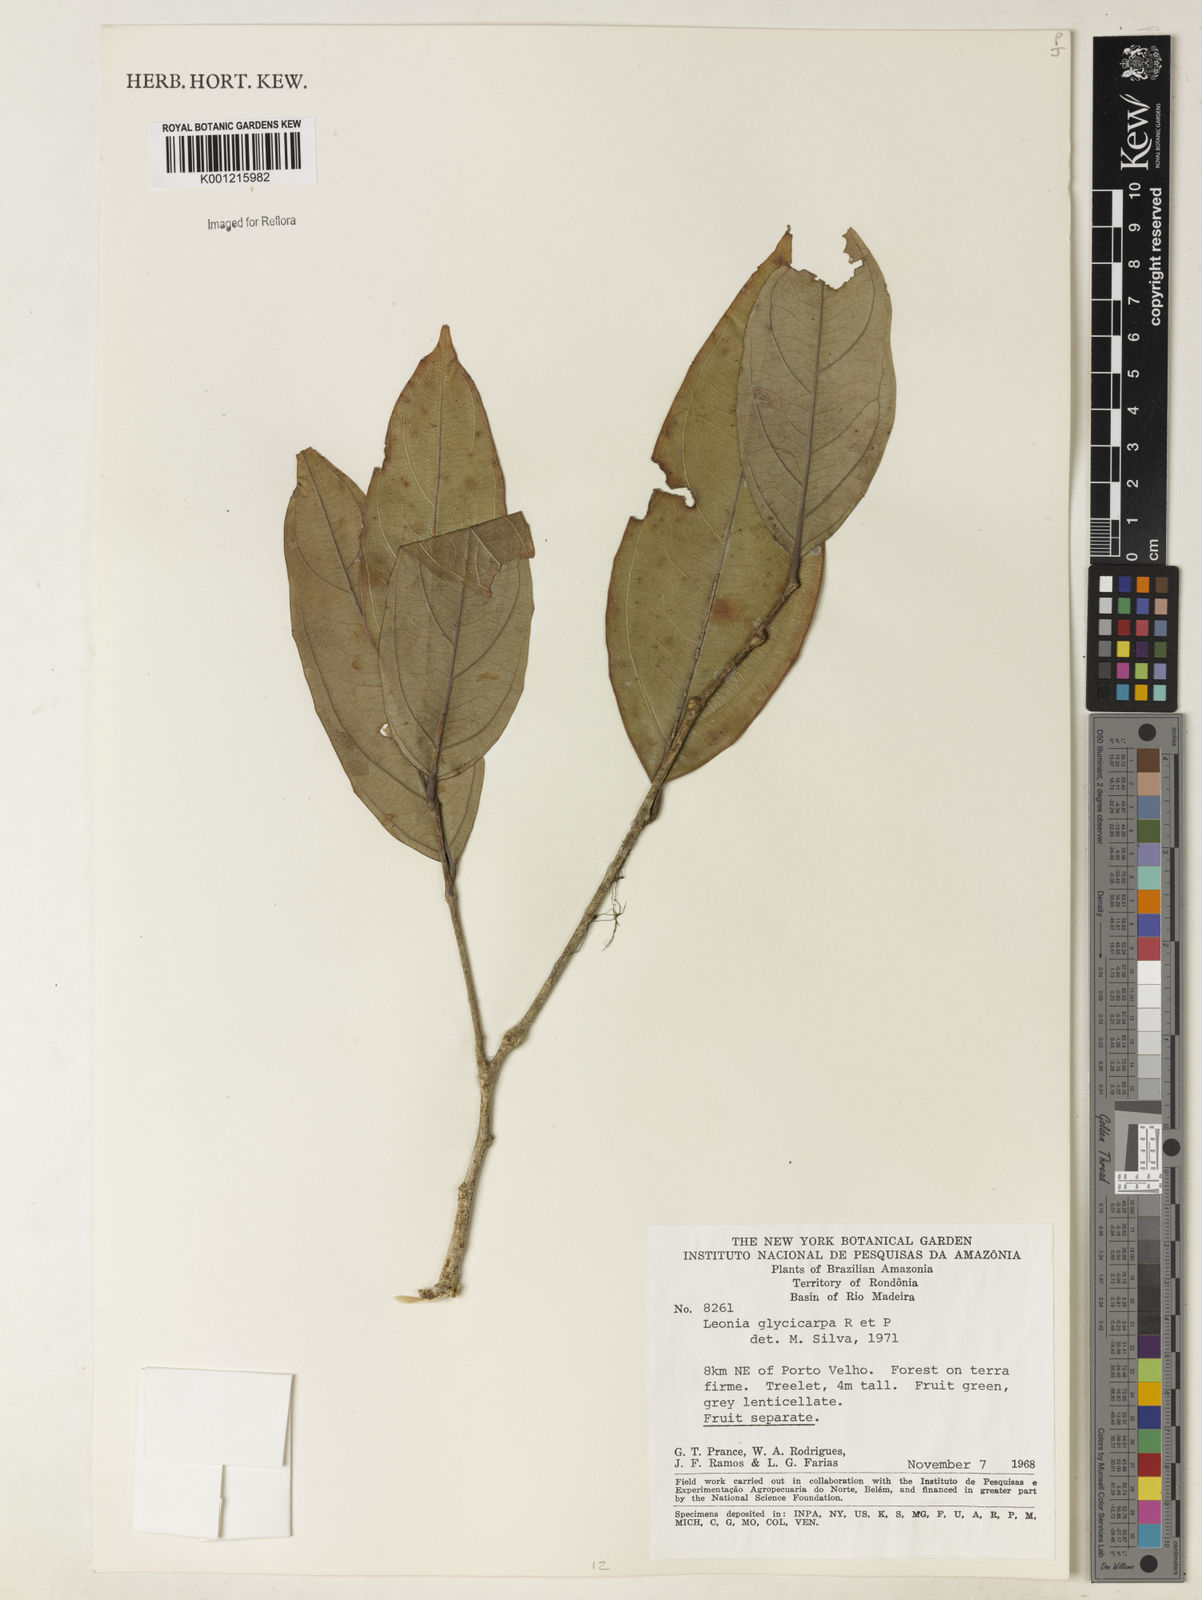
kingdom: Plantae
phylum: Tracheophyta
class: Magnoliopsida
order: Malpighiales
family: Violaceae
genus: Leonia
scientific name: Leonia glycycarpa
